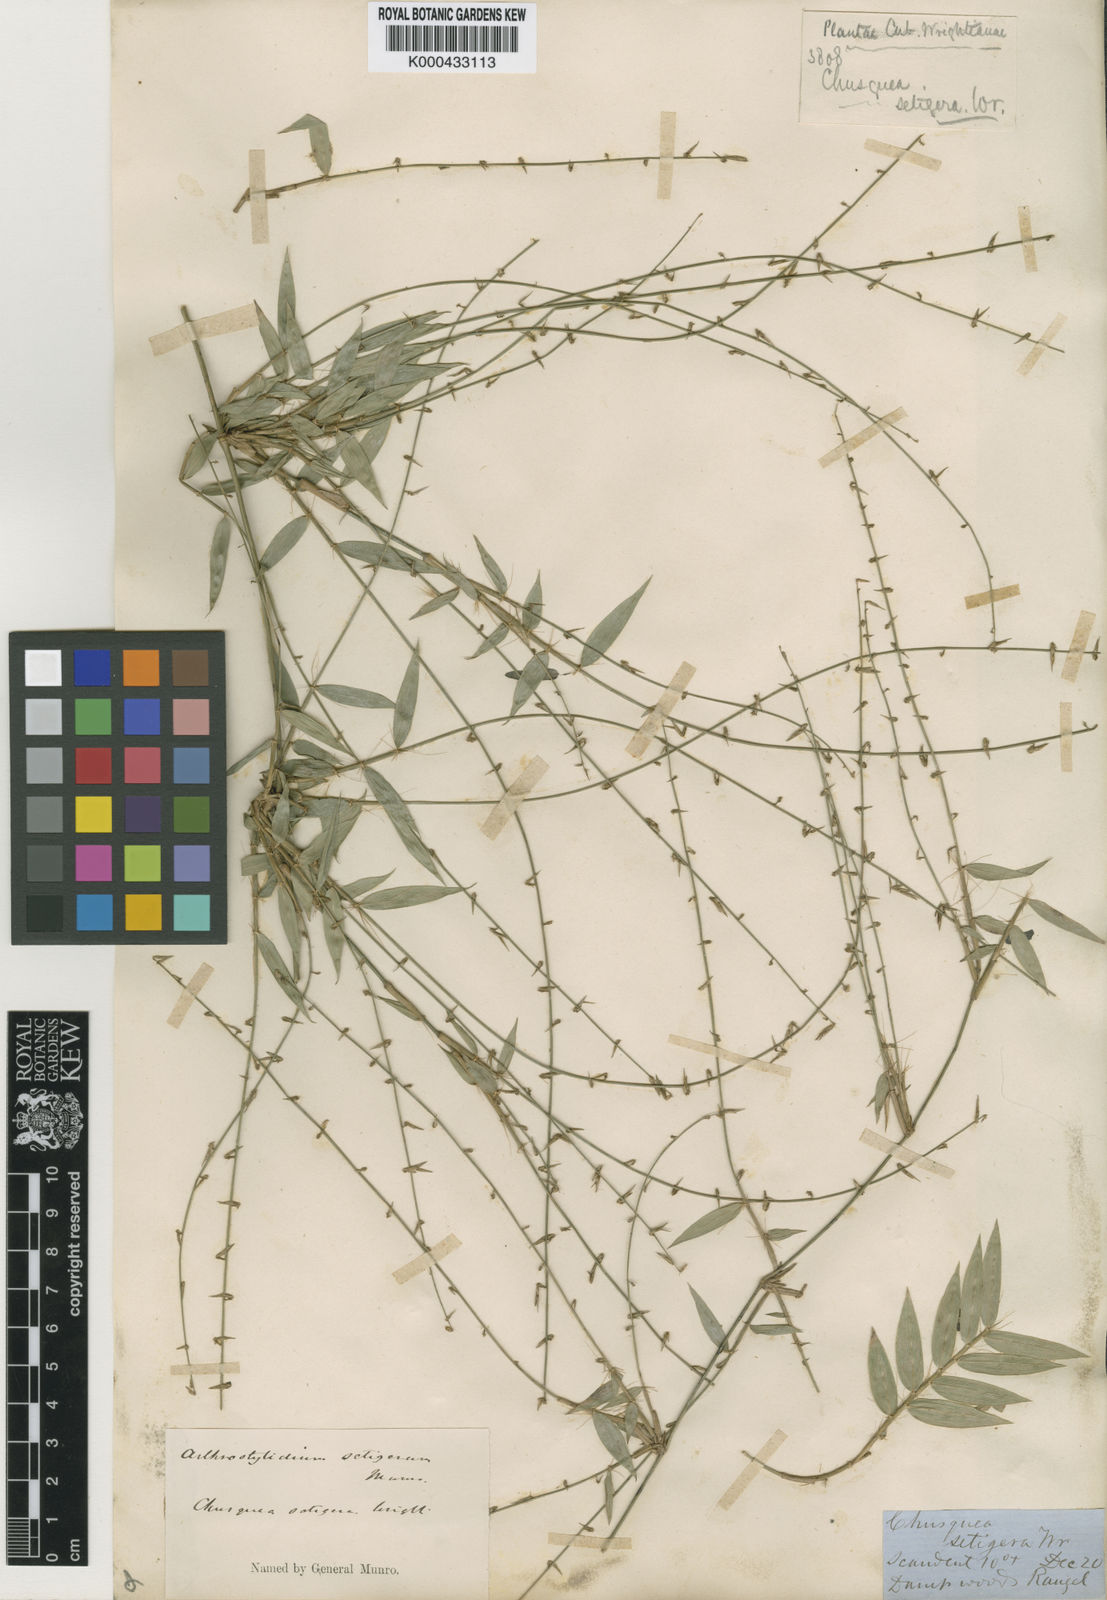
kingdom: Plantae
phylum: Tracheophyta
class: Liliopsida
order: Poales
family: Poaceae
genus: Arthrostylidium
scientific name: Arthrostylidium distichum
